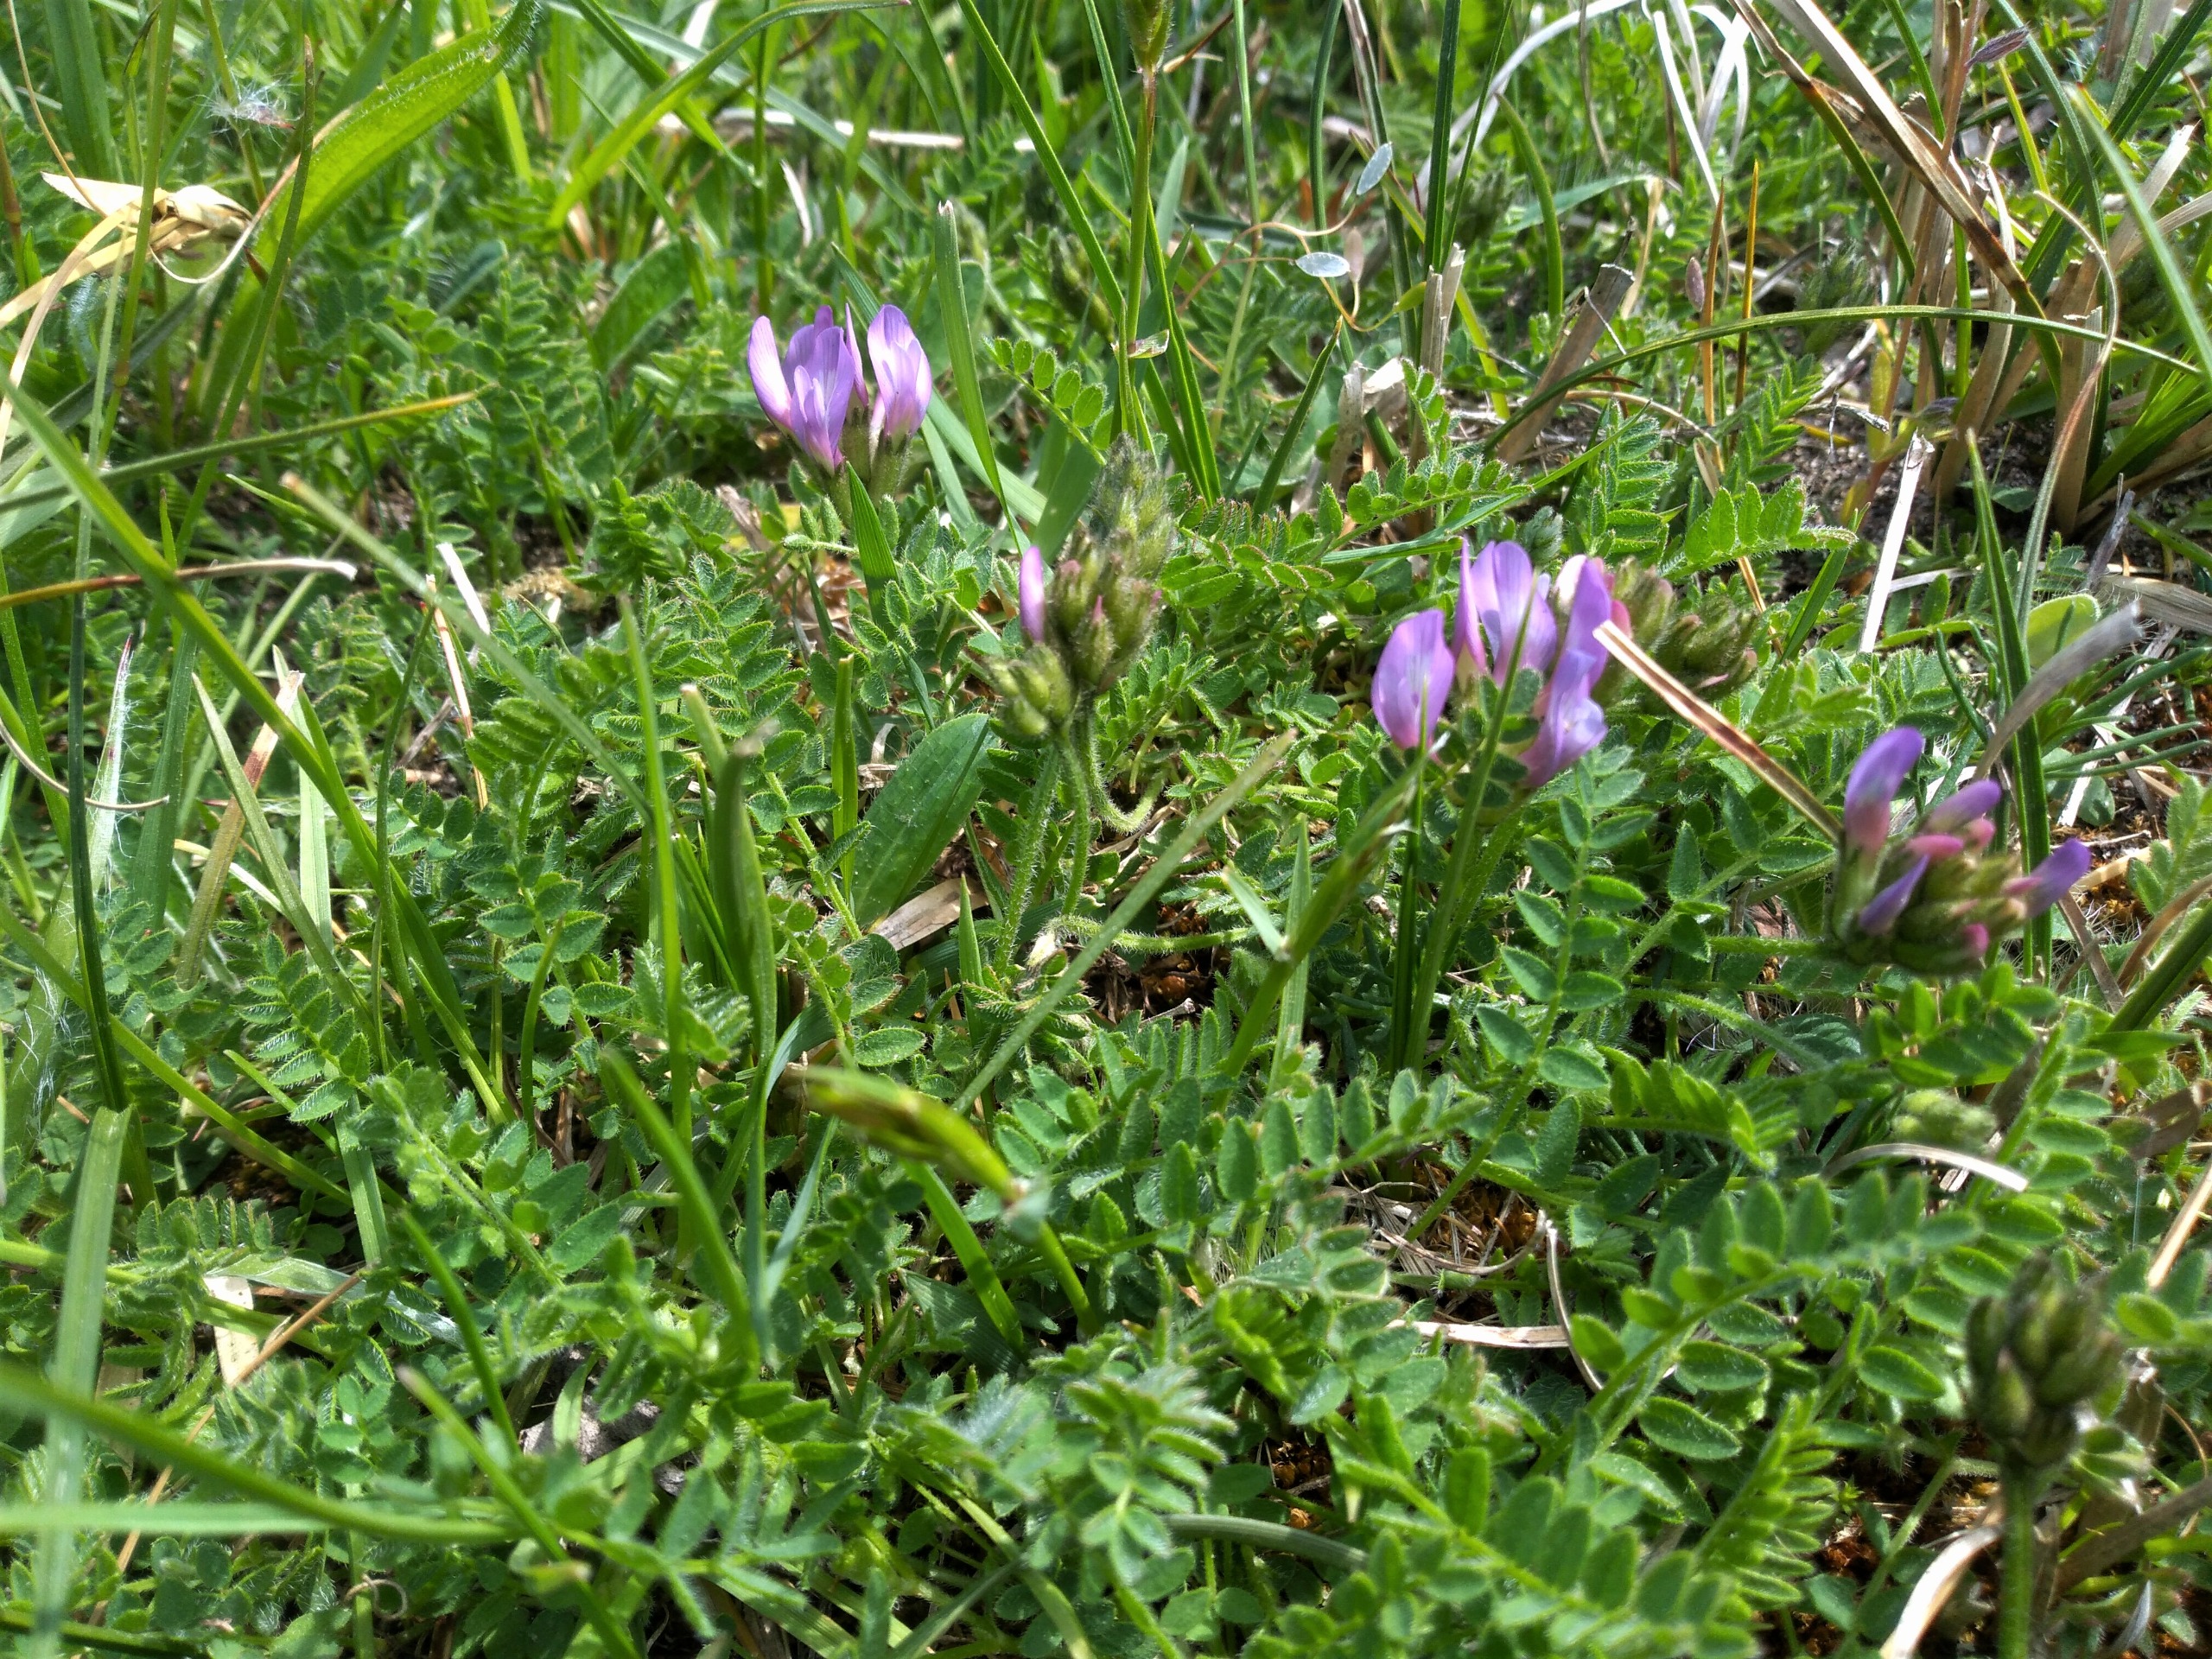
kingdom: Plantae
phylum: Tracheophyta
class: Magnoliopsida
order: Fabales
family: Fabaceae
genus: Astragalus
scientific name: Astragalus danicus
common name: Dansk astragel
